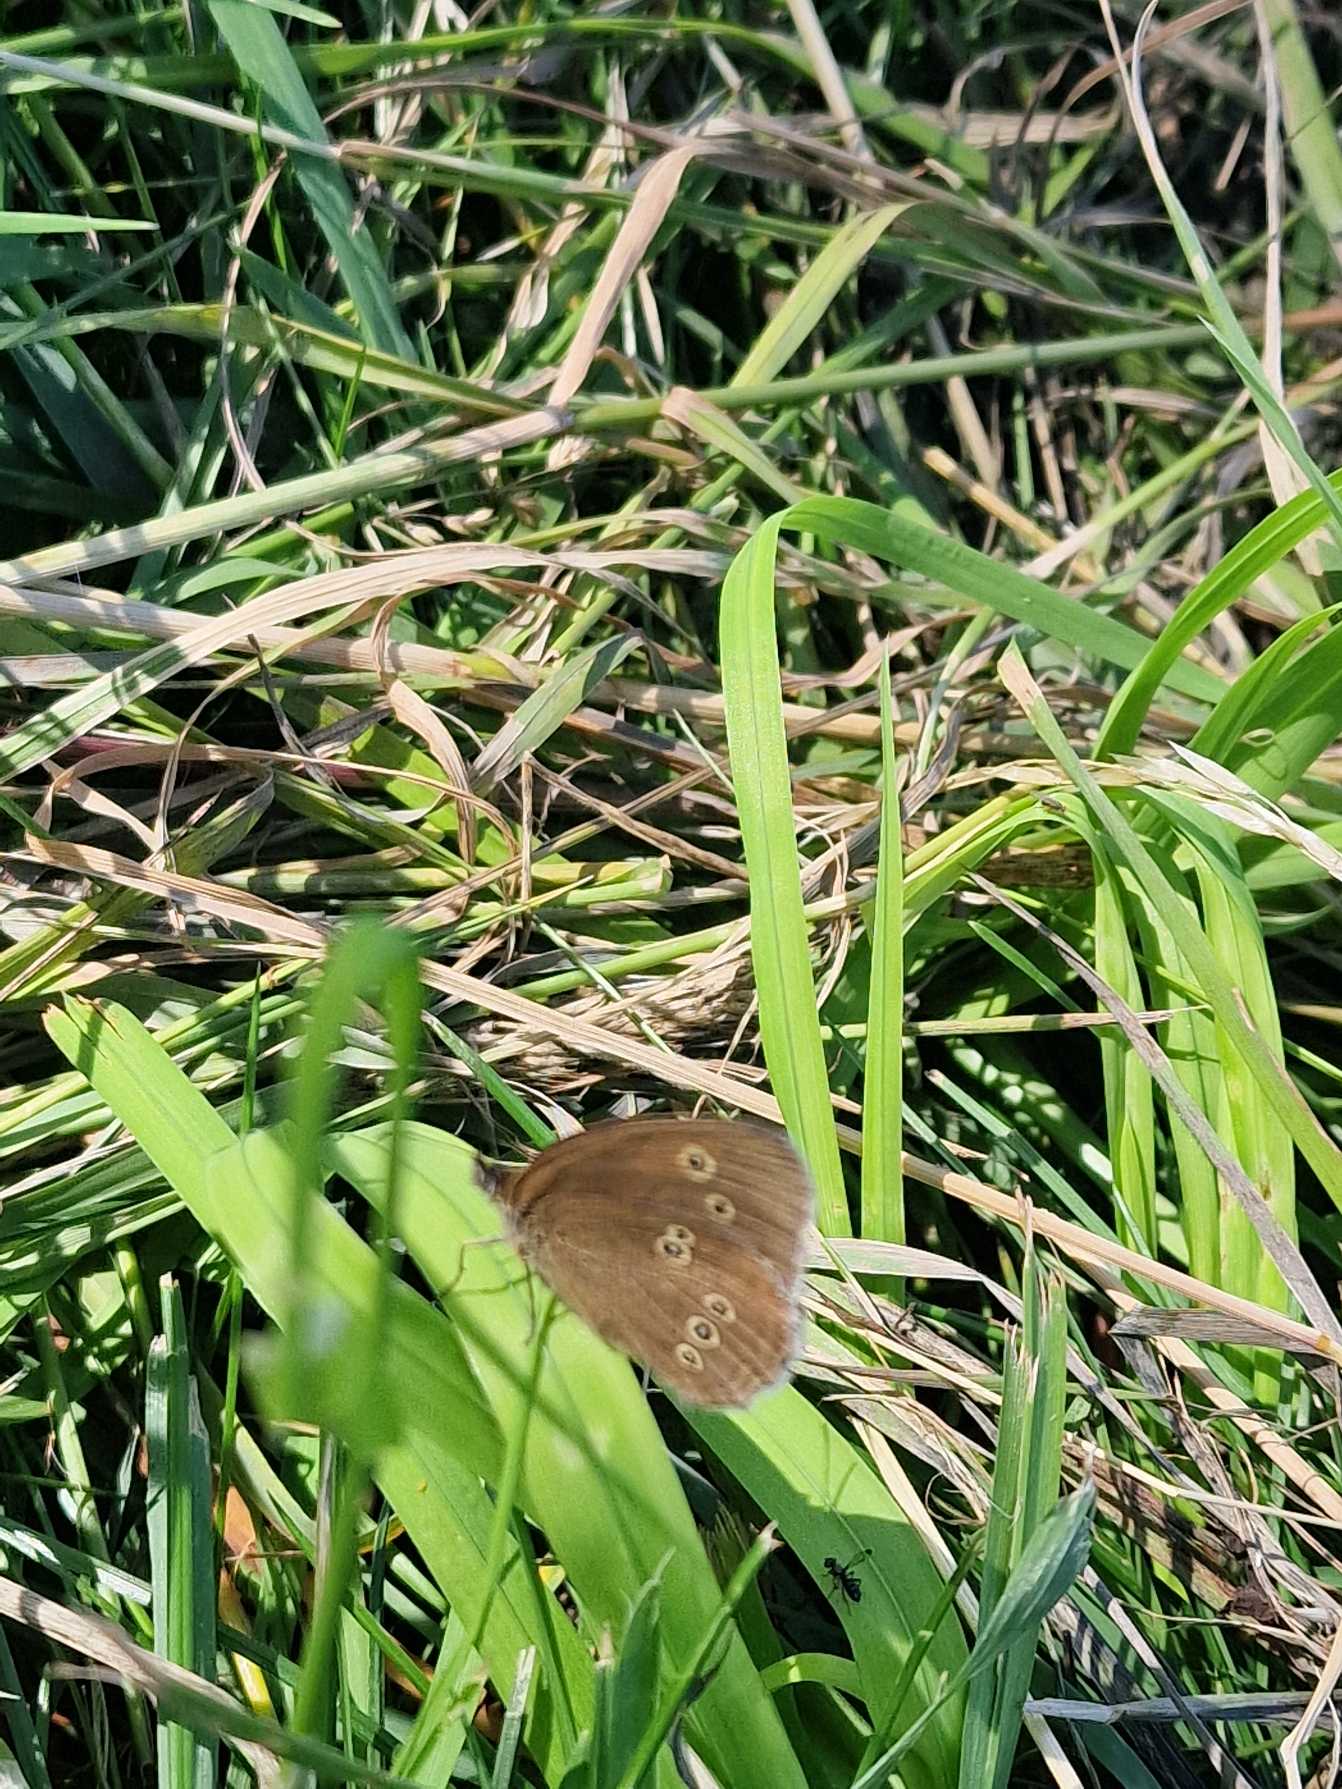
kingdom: Animalia
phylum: Arthropoda
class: Insecta
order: Lepidoptera
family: Nymphalidae
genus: Aphantopus
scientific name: Aphantopus hyperantus
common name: Engrandøje
